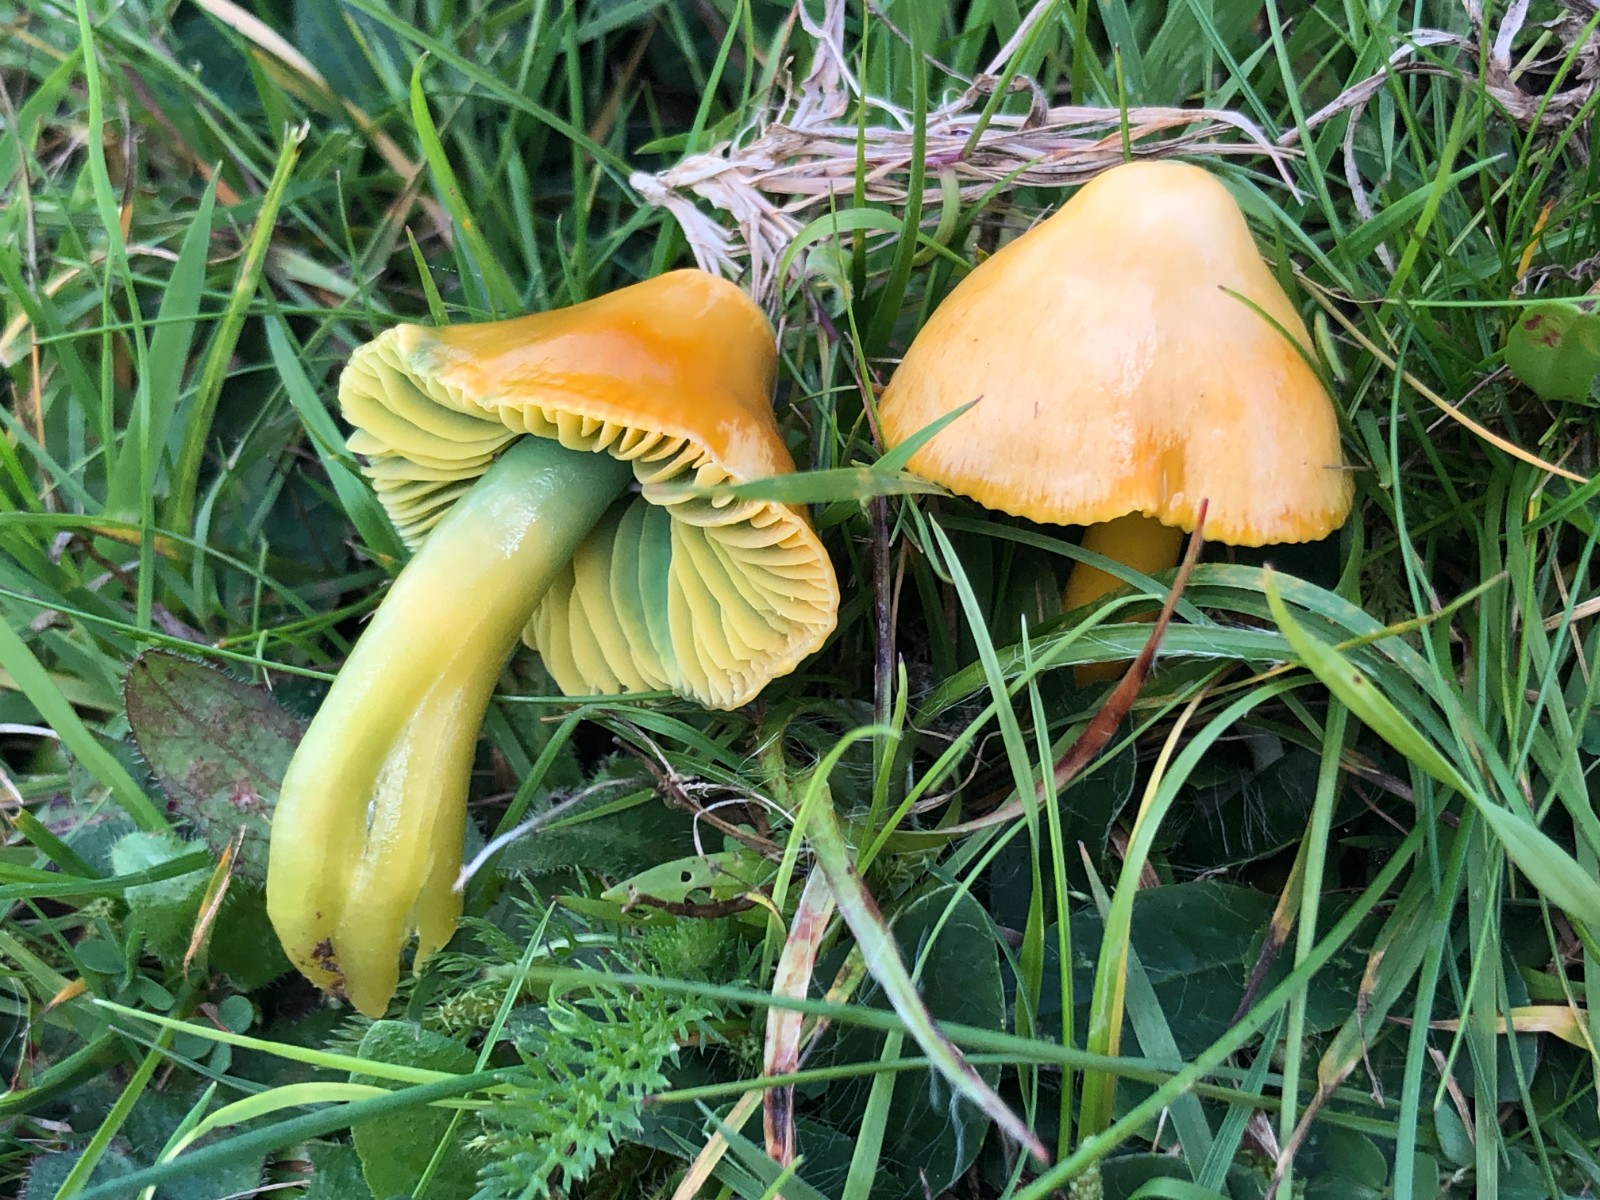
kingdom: Fungi
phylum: Basidiomycota
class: Agaricomycetes
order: Agaricales
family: Hygrophoraceae
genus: Gliophorus
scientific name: Gliophorus psittacinus
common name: papegøje-vokshat
